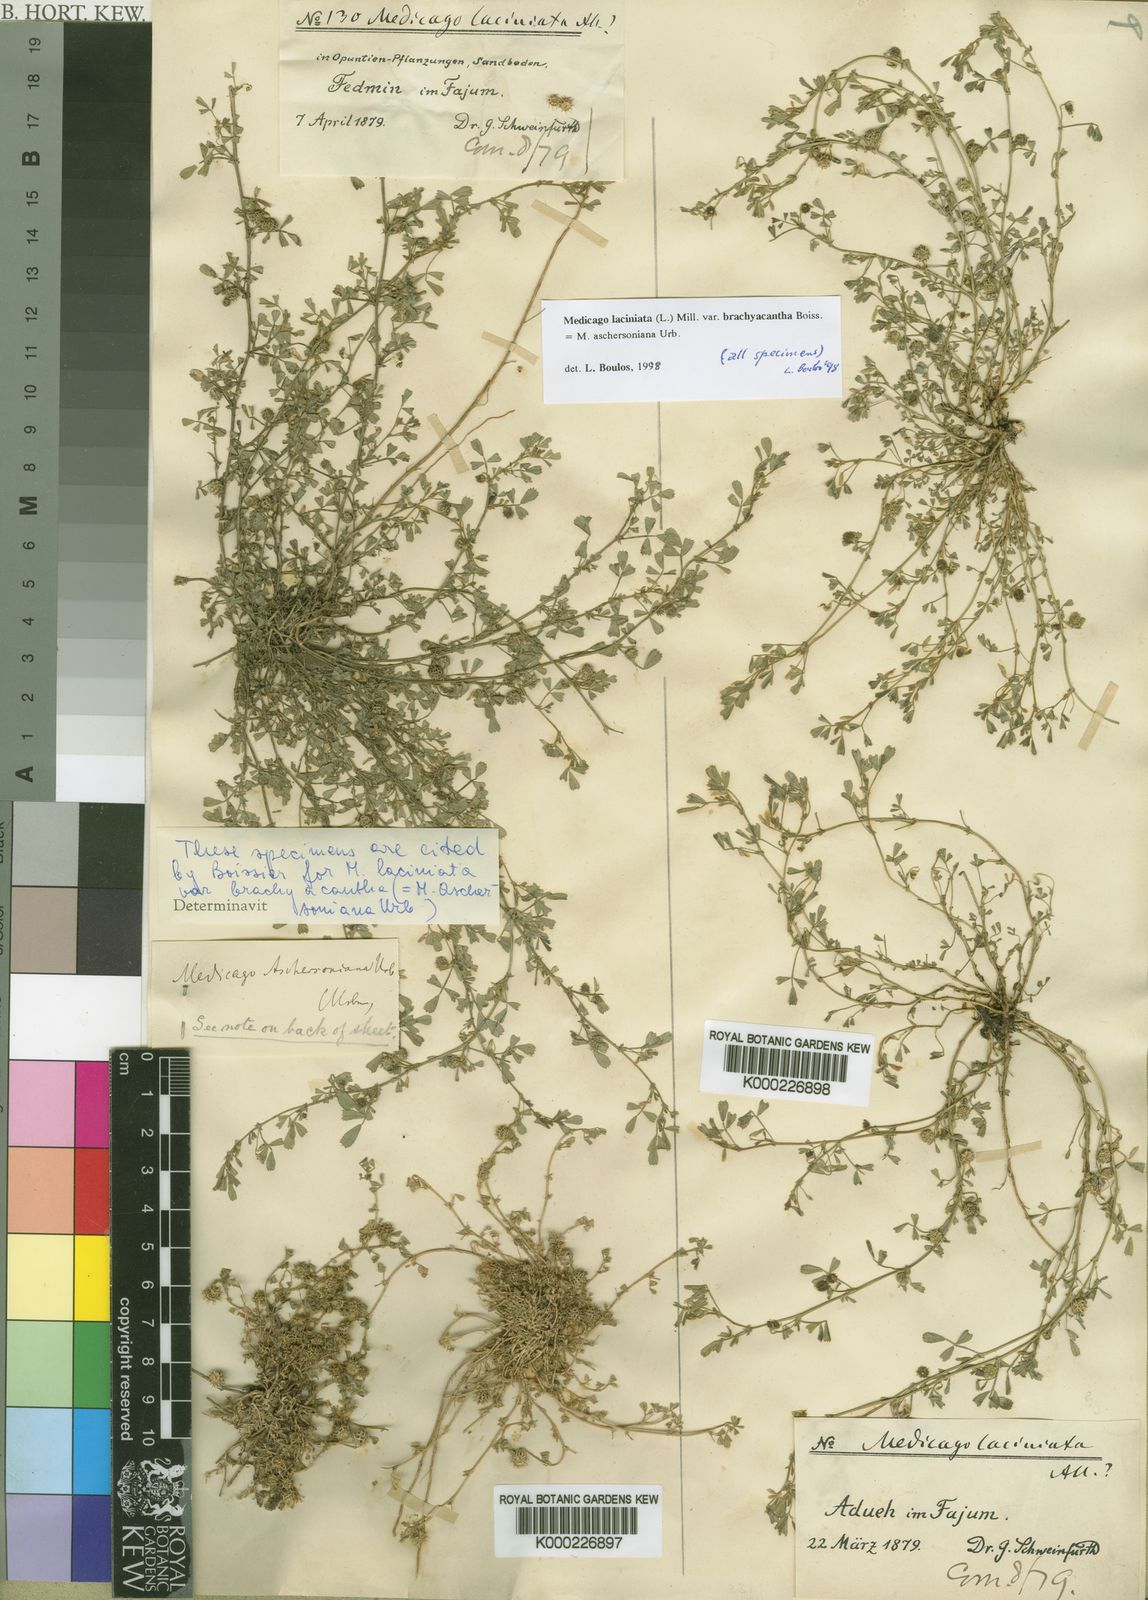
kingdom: Plantae
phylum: Tracheophyta
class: Magnoliopsida
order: Fabales
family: Fabaceae
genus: Medicago
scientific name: Medicago
